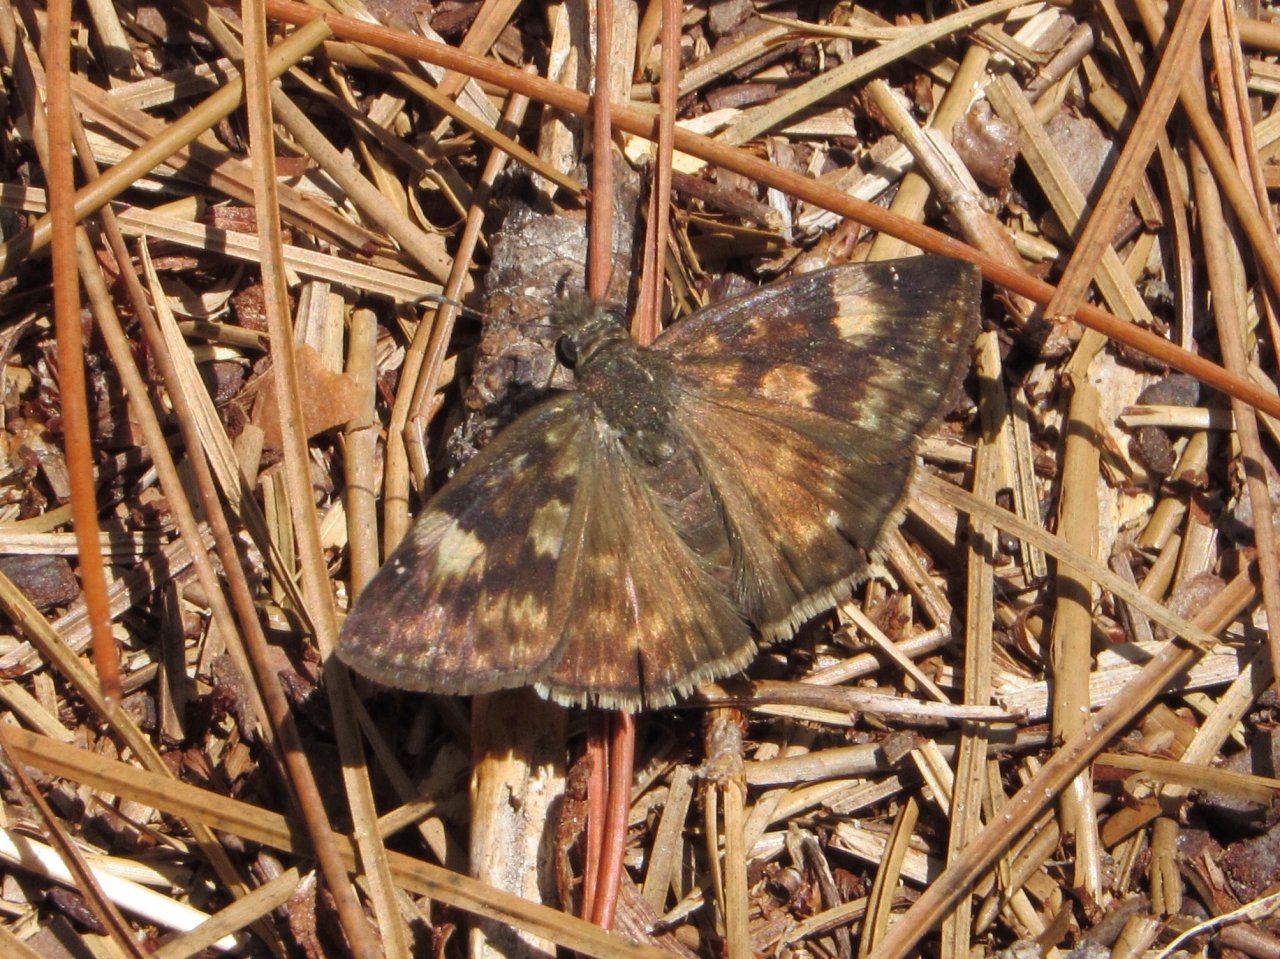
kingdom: Animalia
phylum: Arthropoda
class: Insecta
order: Lepidoptera
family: Hesperiidae
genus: Erynnis
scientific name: Erynnis zarucco
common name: Zarucco Duskywing
